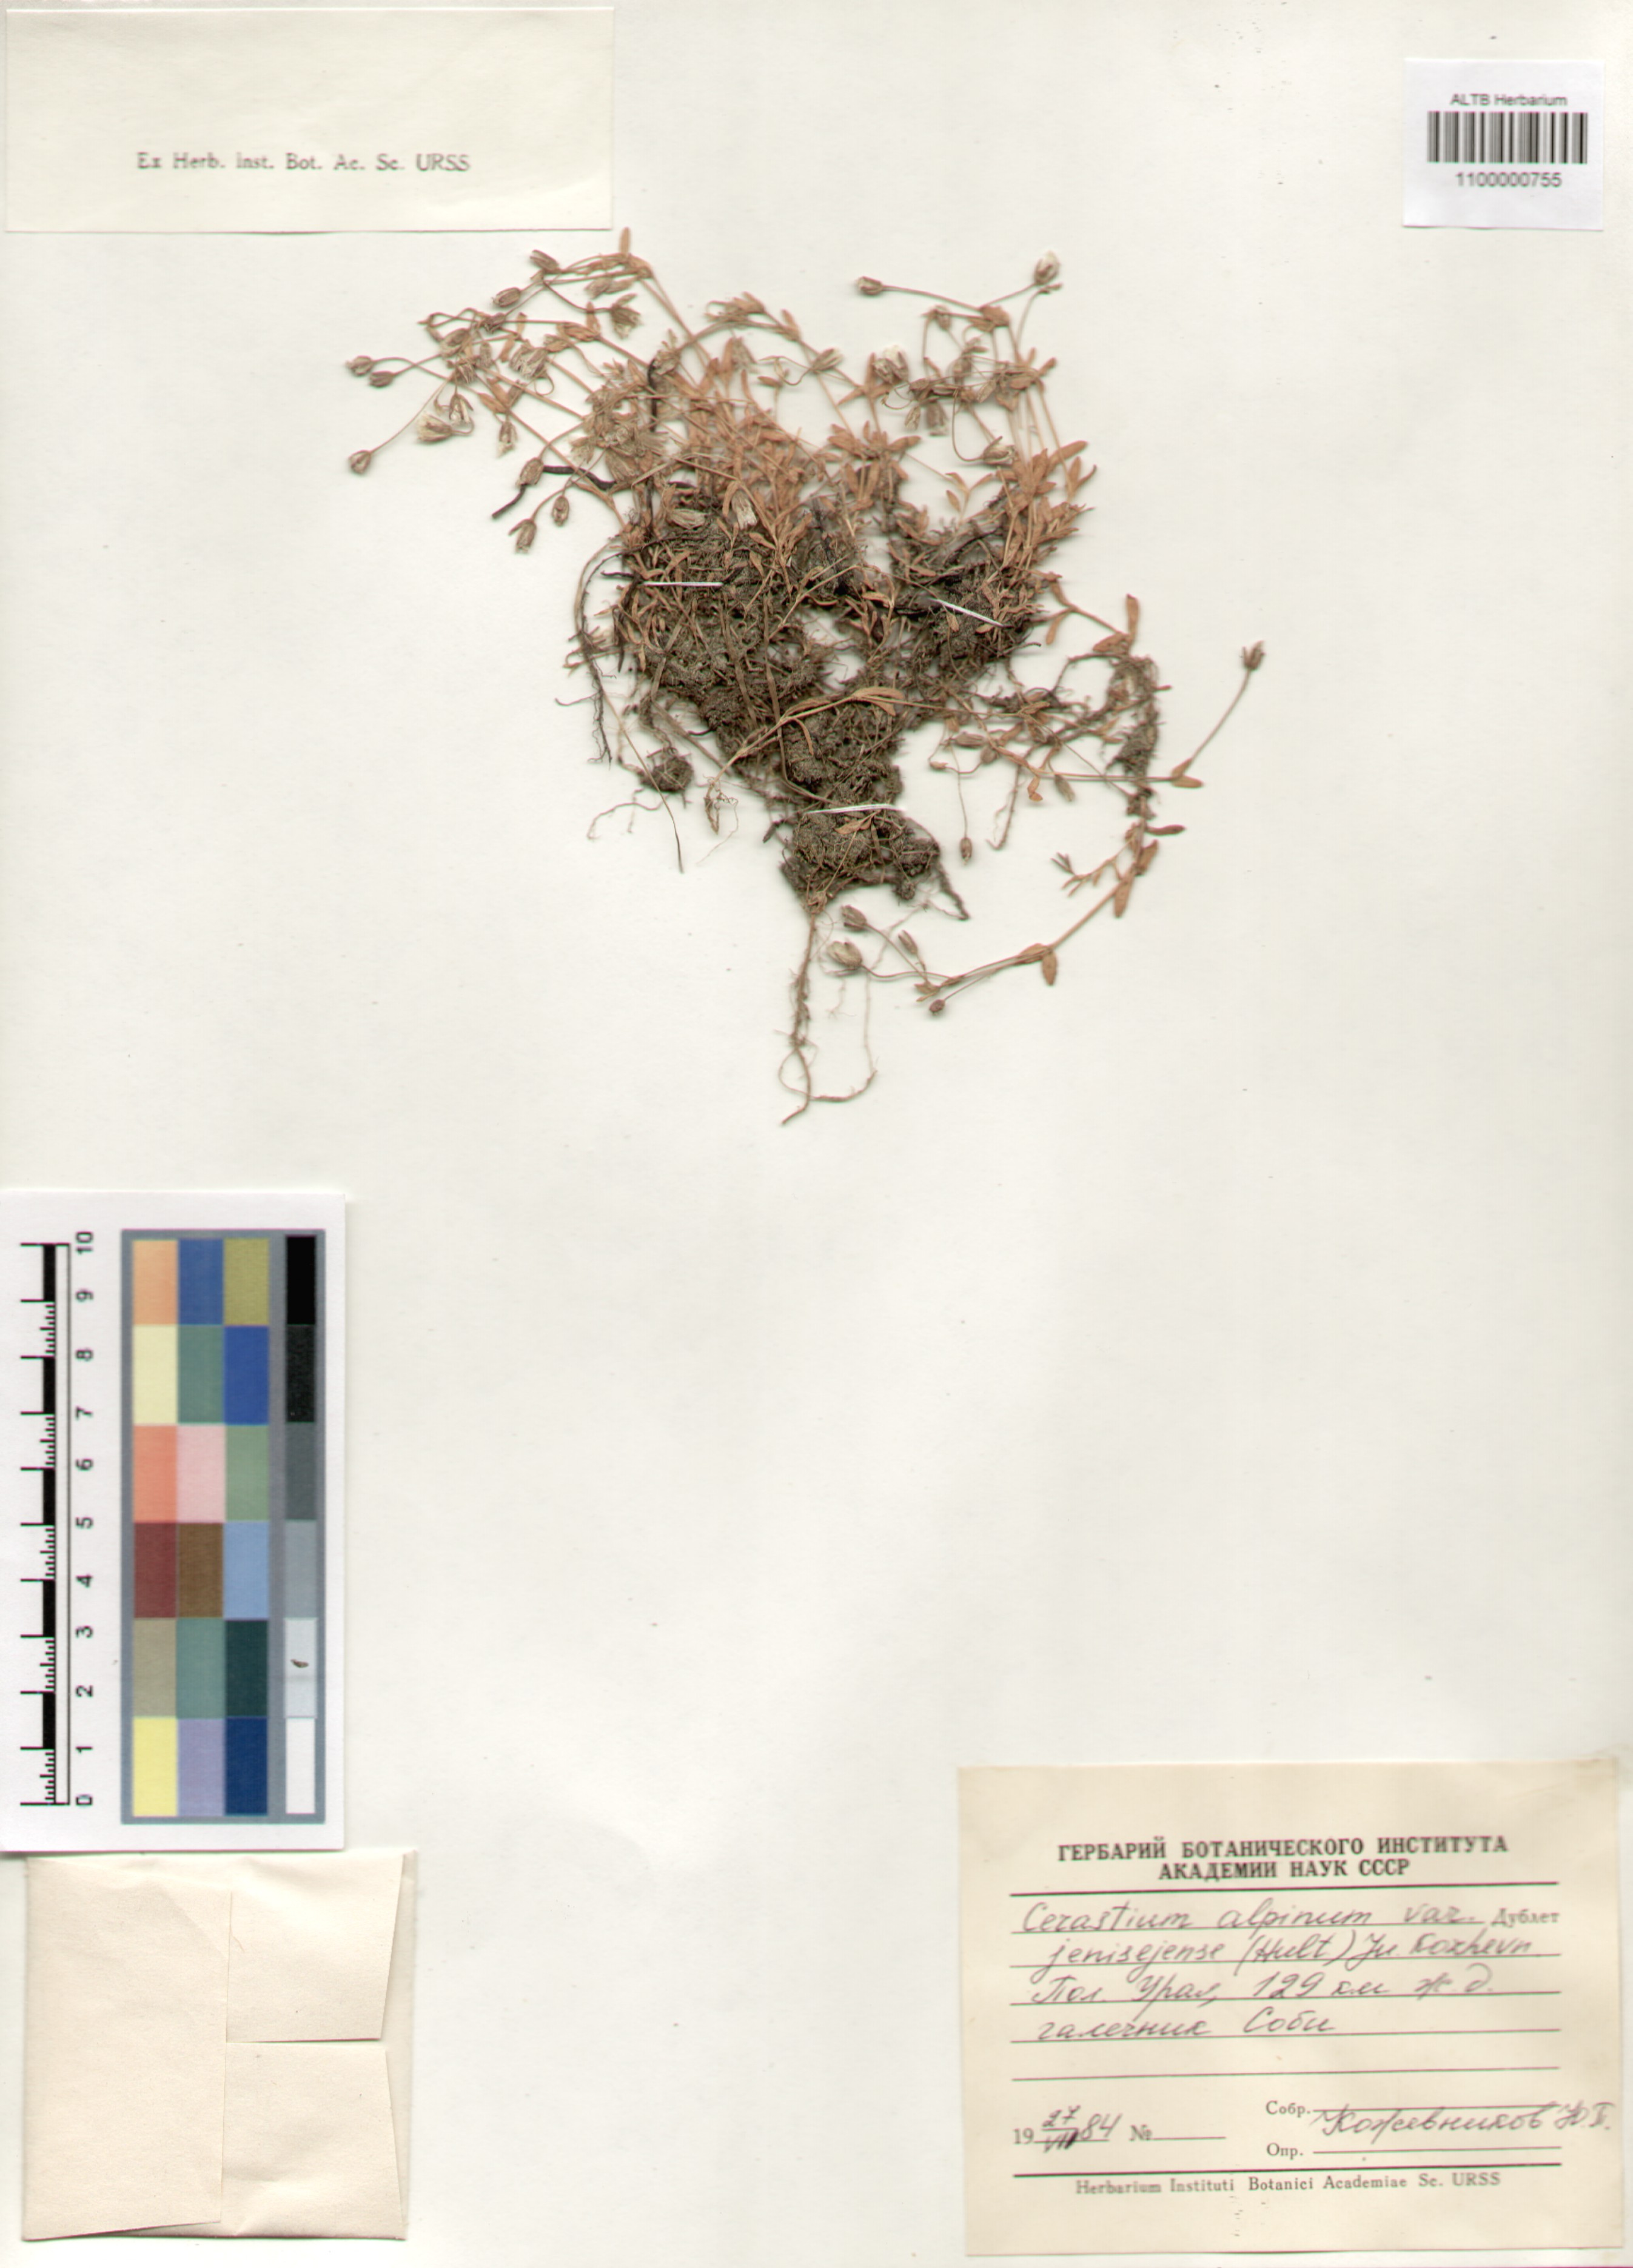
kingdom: Plantae
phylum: Tracheophyta
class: Magnoliopsida
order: Caryophyllales
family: Caryophyllaceae
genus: Cerastium
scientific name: Cerastium alpinum
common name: Alpine mouse-ear
